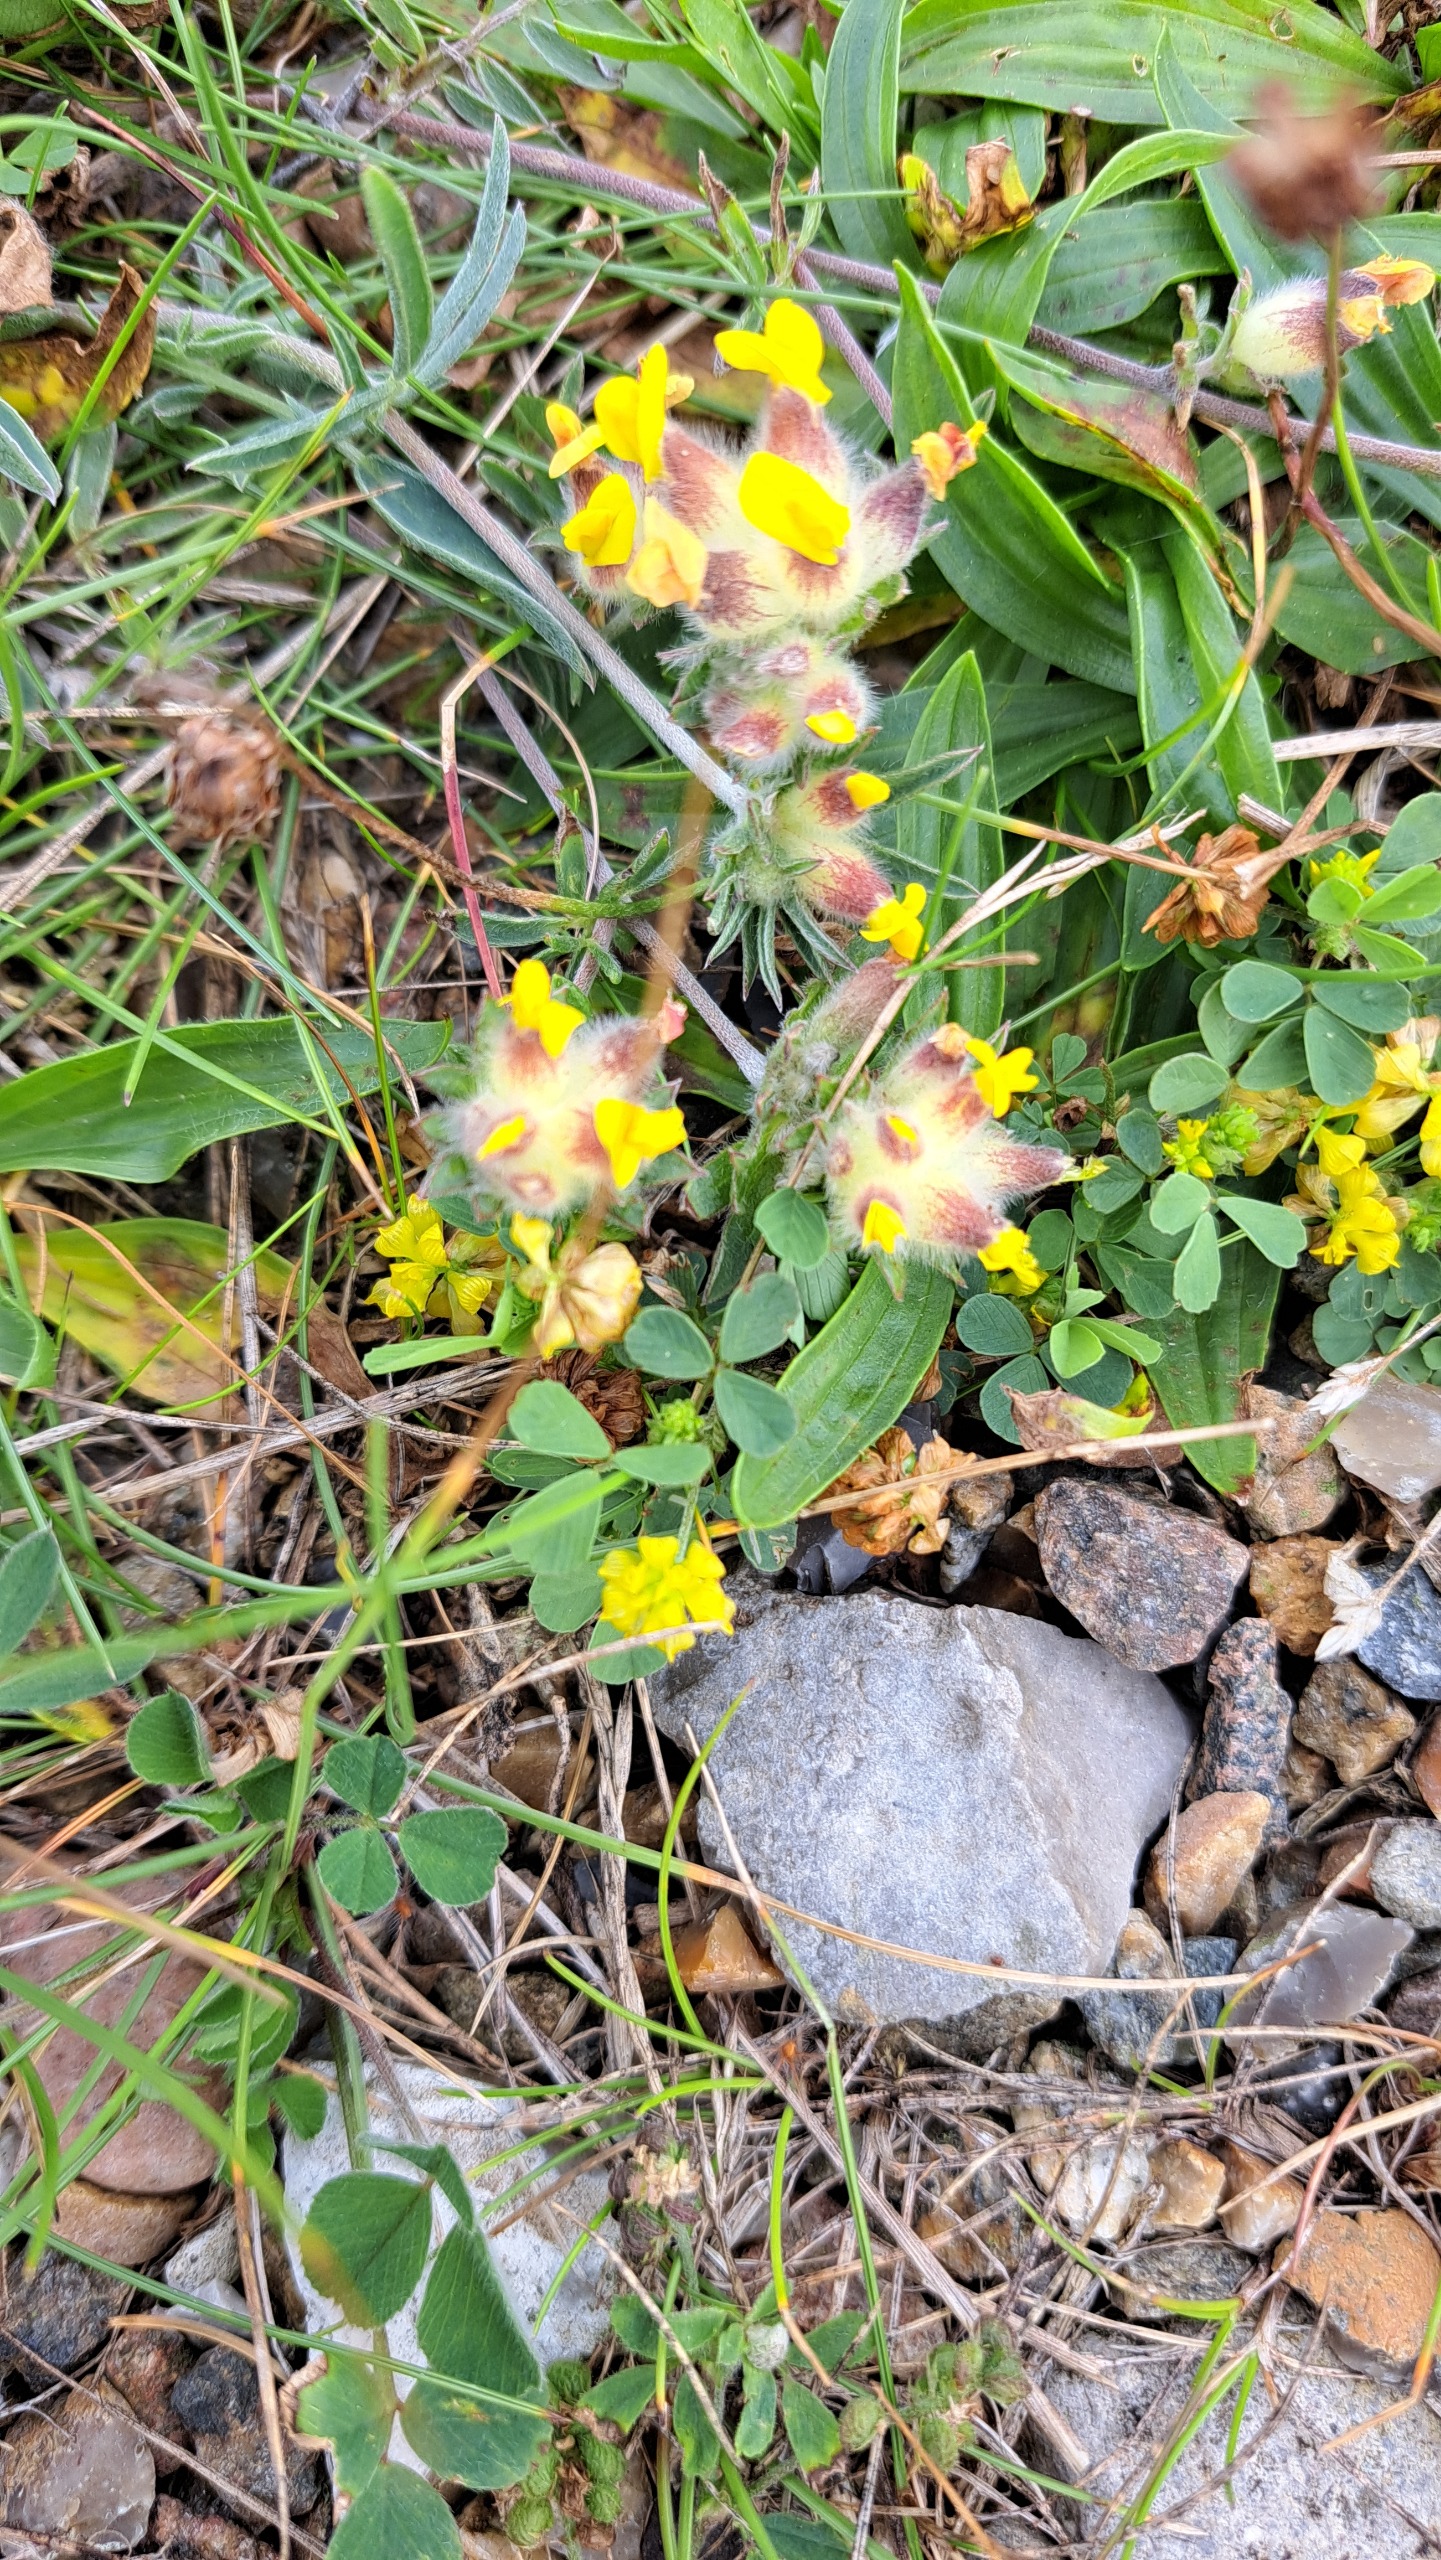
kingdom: Plantae
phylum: Tracheophyta
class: Magnoliopsida
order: Fabales
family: Fabaceae
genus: Anthyllis
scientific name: Anthyllis vulneraria
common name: Rundbælg
